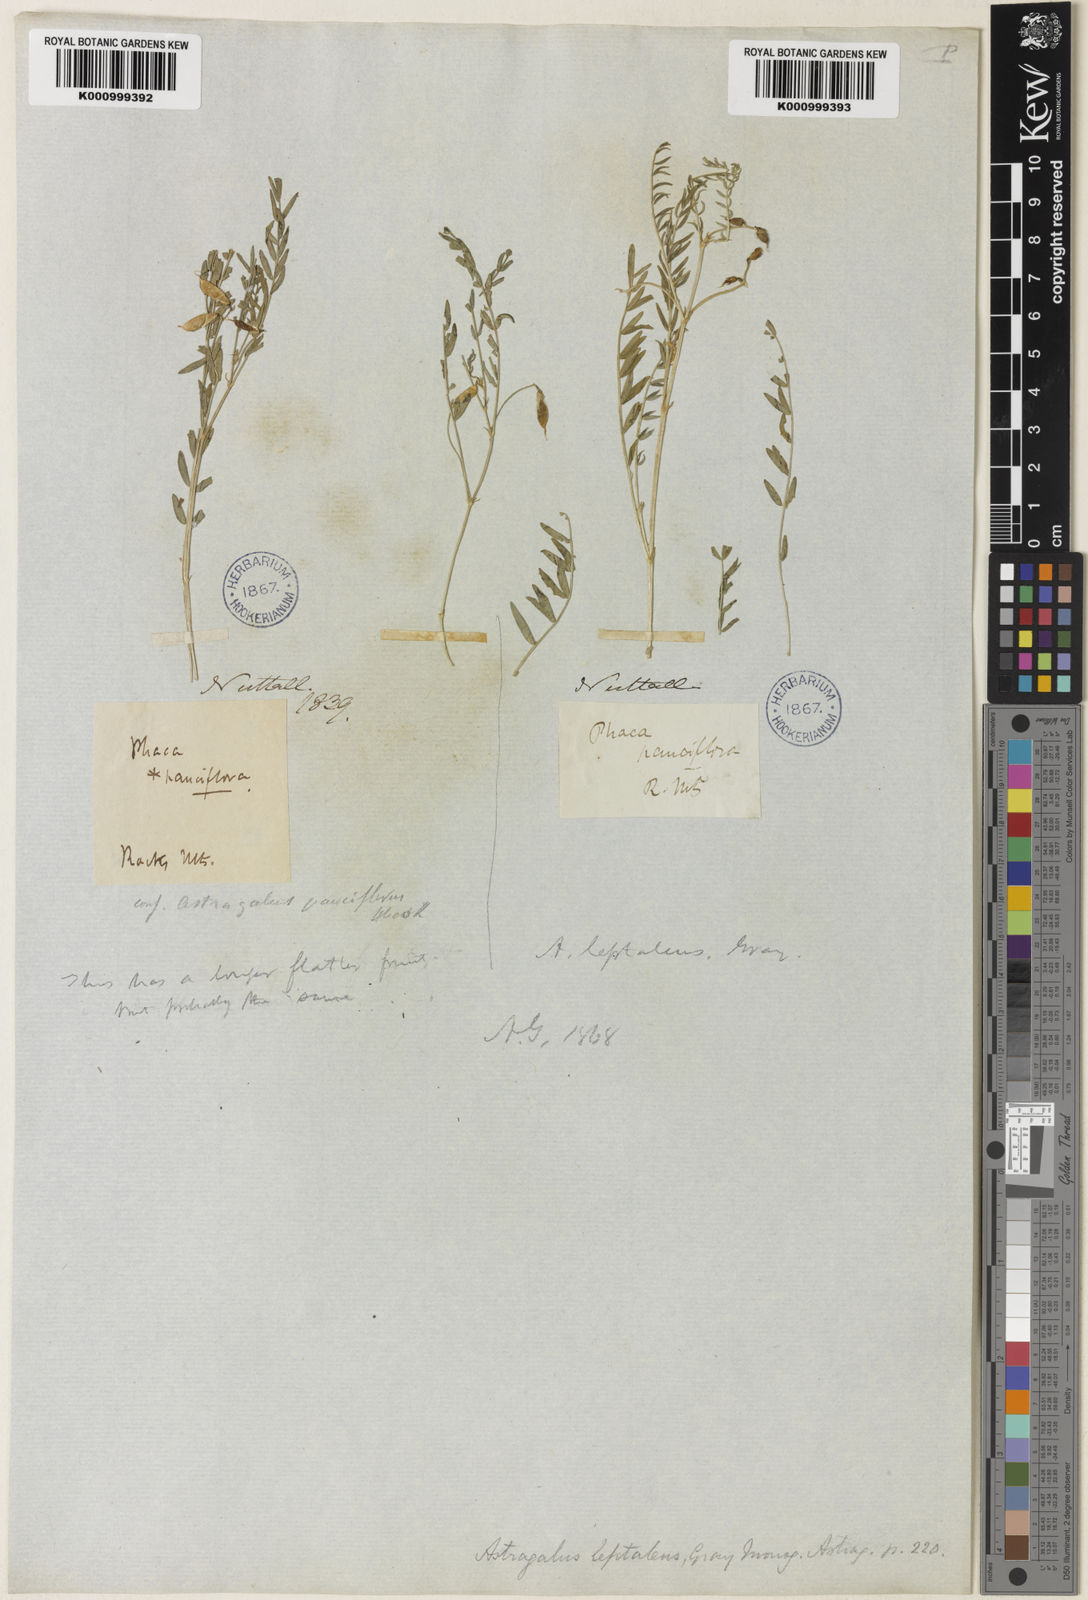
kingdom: Plantae
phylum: Tracheophyta
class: Magnoliopsida
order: Fabales
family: Fabaceae
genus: Astragalus
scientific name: Astragalus leptaleus
